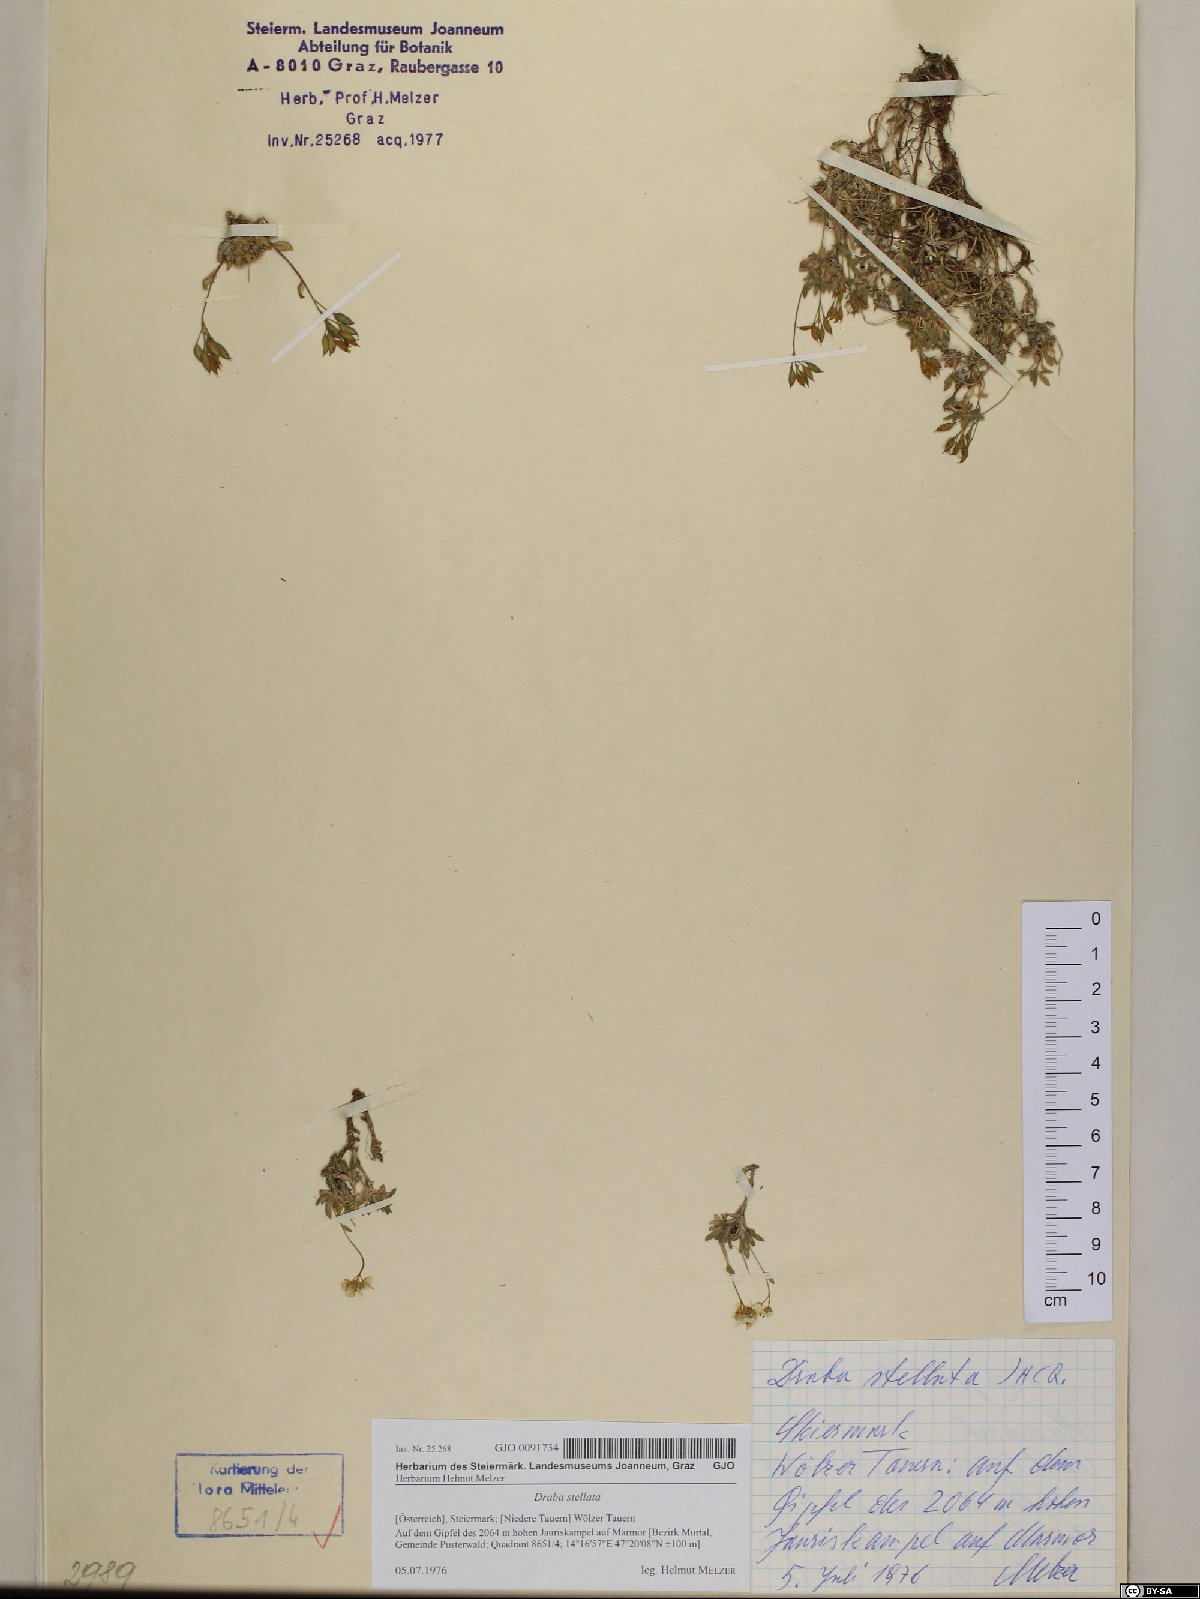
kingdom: Plantae
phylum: Tracheophyta
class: Magnoliopsida
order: Brassicales
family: Brassicaceae
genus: Draba
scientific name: Draba stellata
